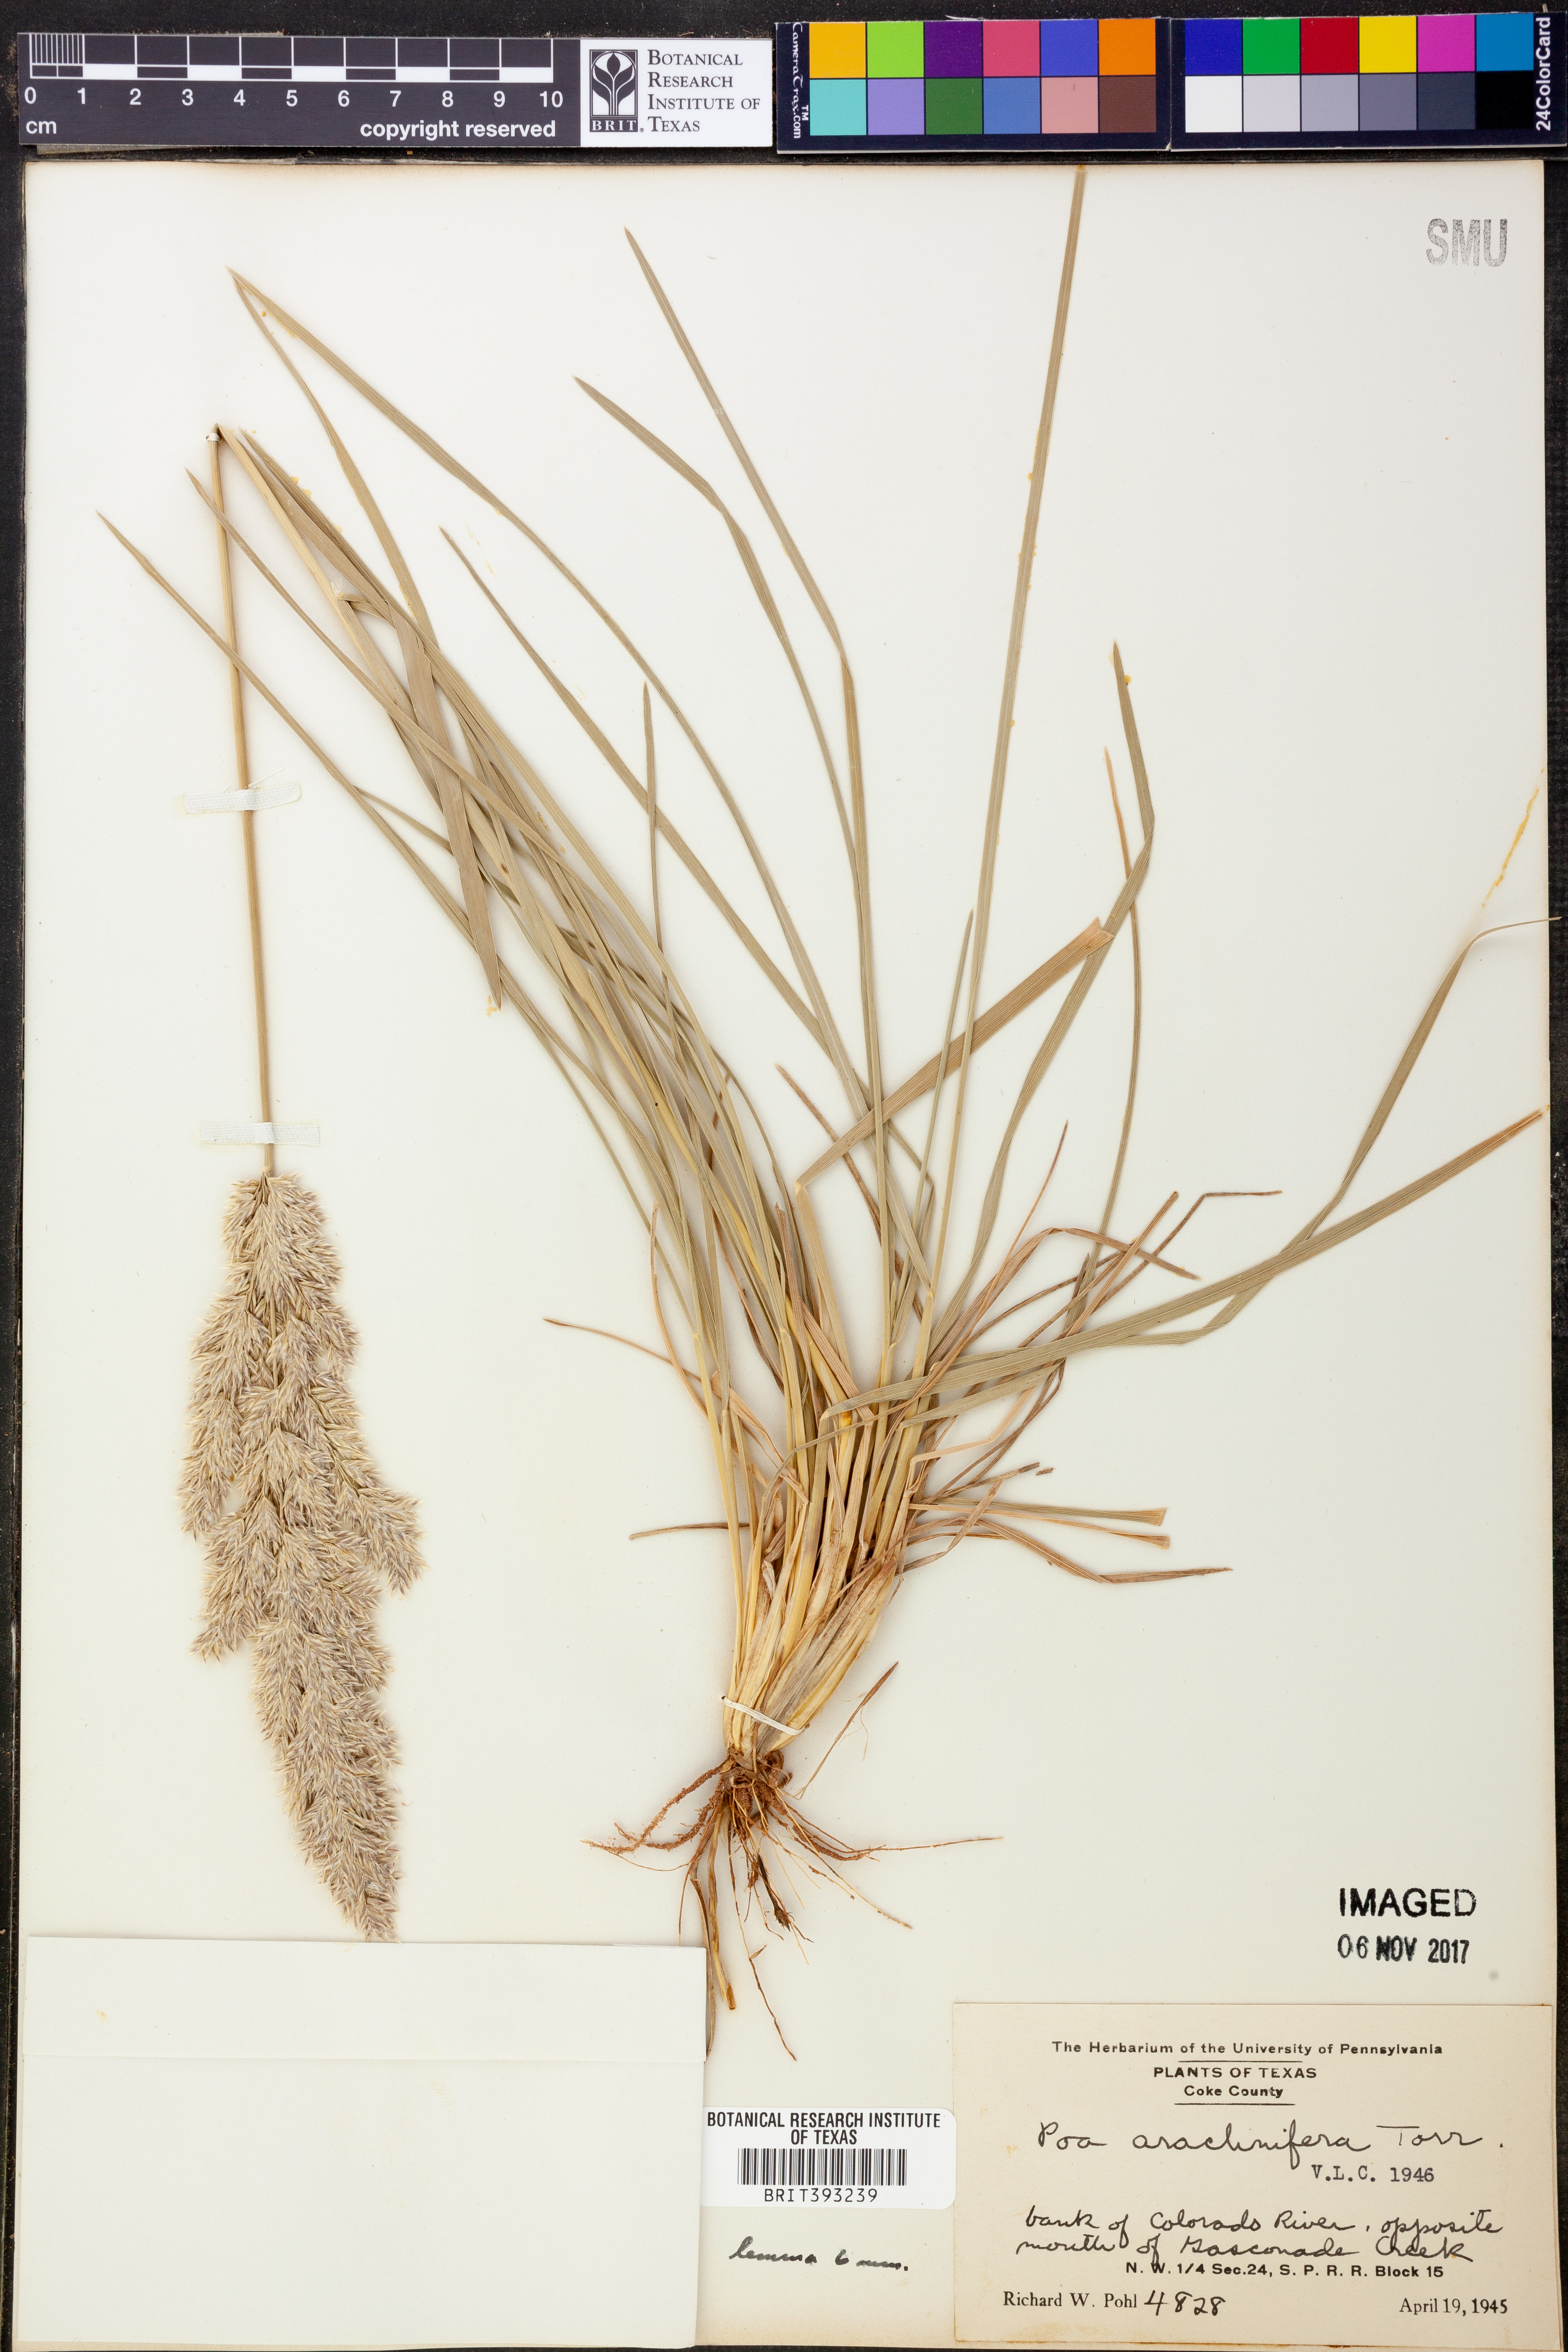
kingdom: Plantae
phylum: Tracheophyta
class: Liliopsida
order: Poales
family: Poaceae
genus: Poa
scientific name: Poa arachnifera
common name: Texas bluegrass
